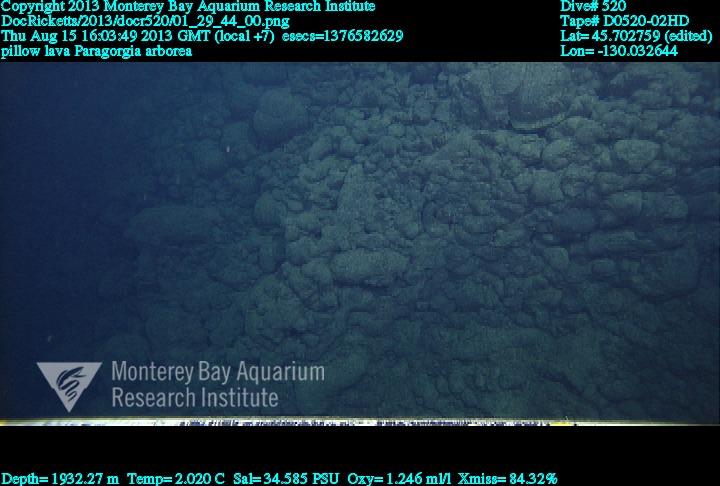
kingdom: Animalia
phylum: Cnidaria
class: Anthozoa
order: Scleralcyonacea
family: Coralliidae
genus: Paragorgia
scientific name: Paragorgia arborea
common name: Bubble gum coral
